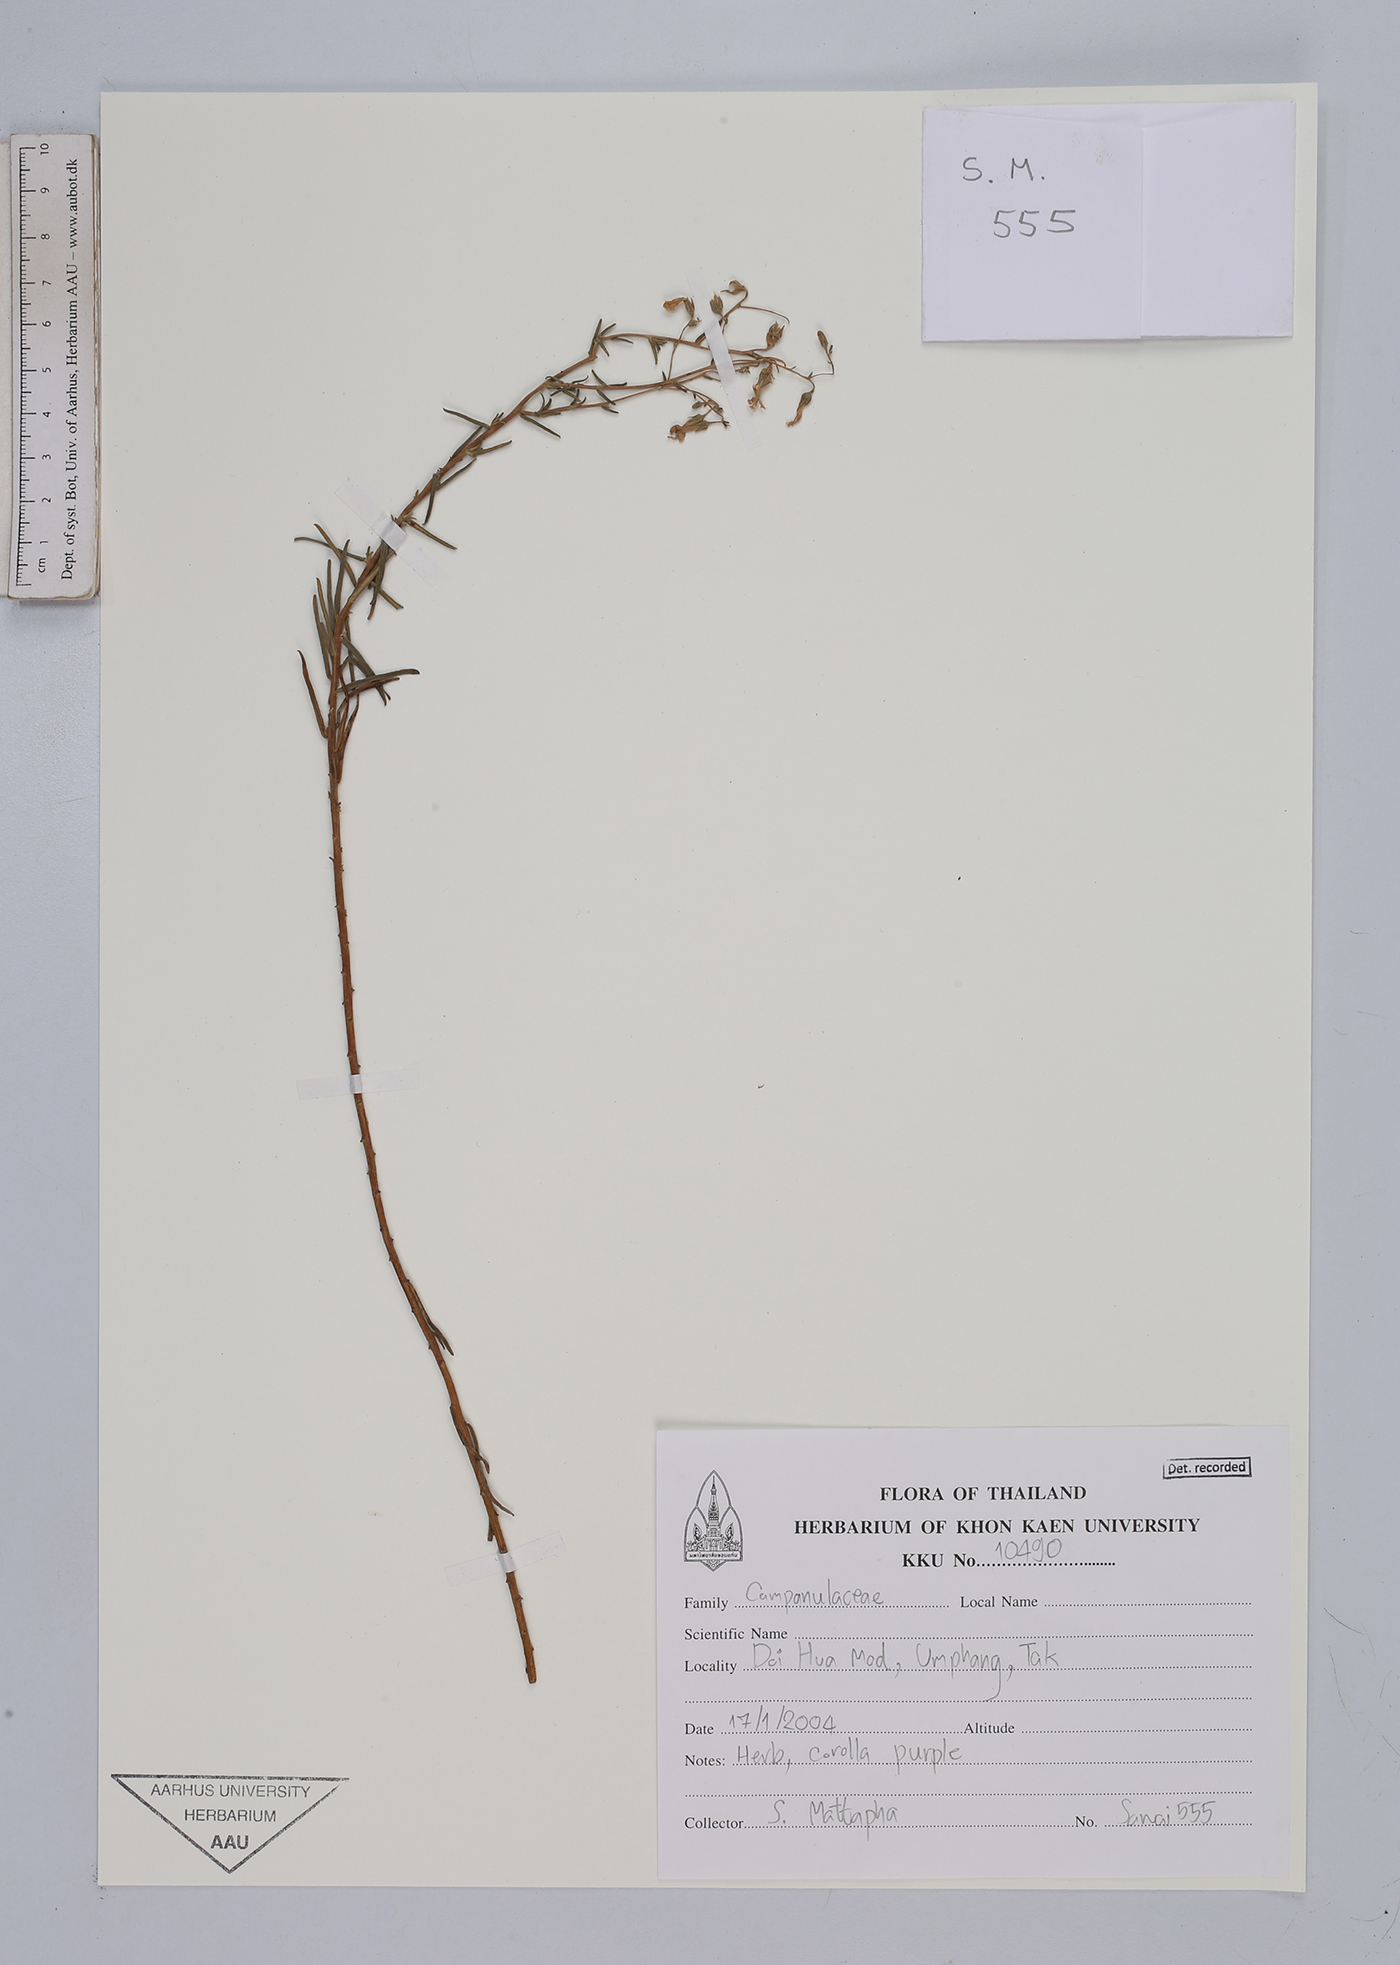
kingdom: Plantae
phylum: Tracheophyta
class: Magnoliopsida
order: Asterales
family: Campanulaceae
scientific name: Campanulaceae
